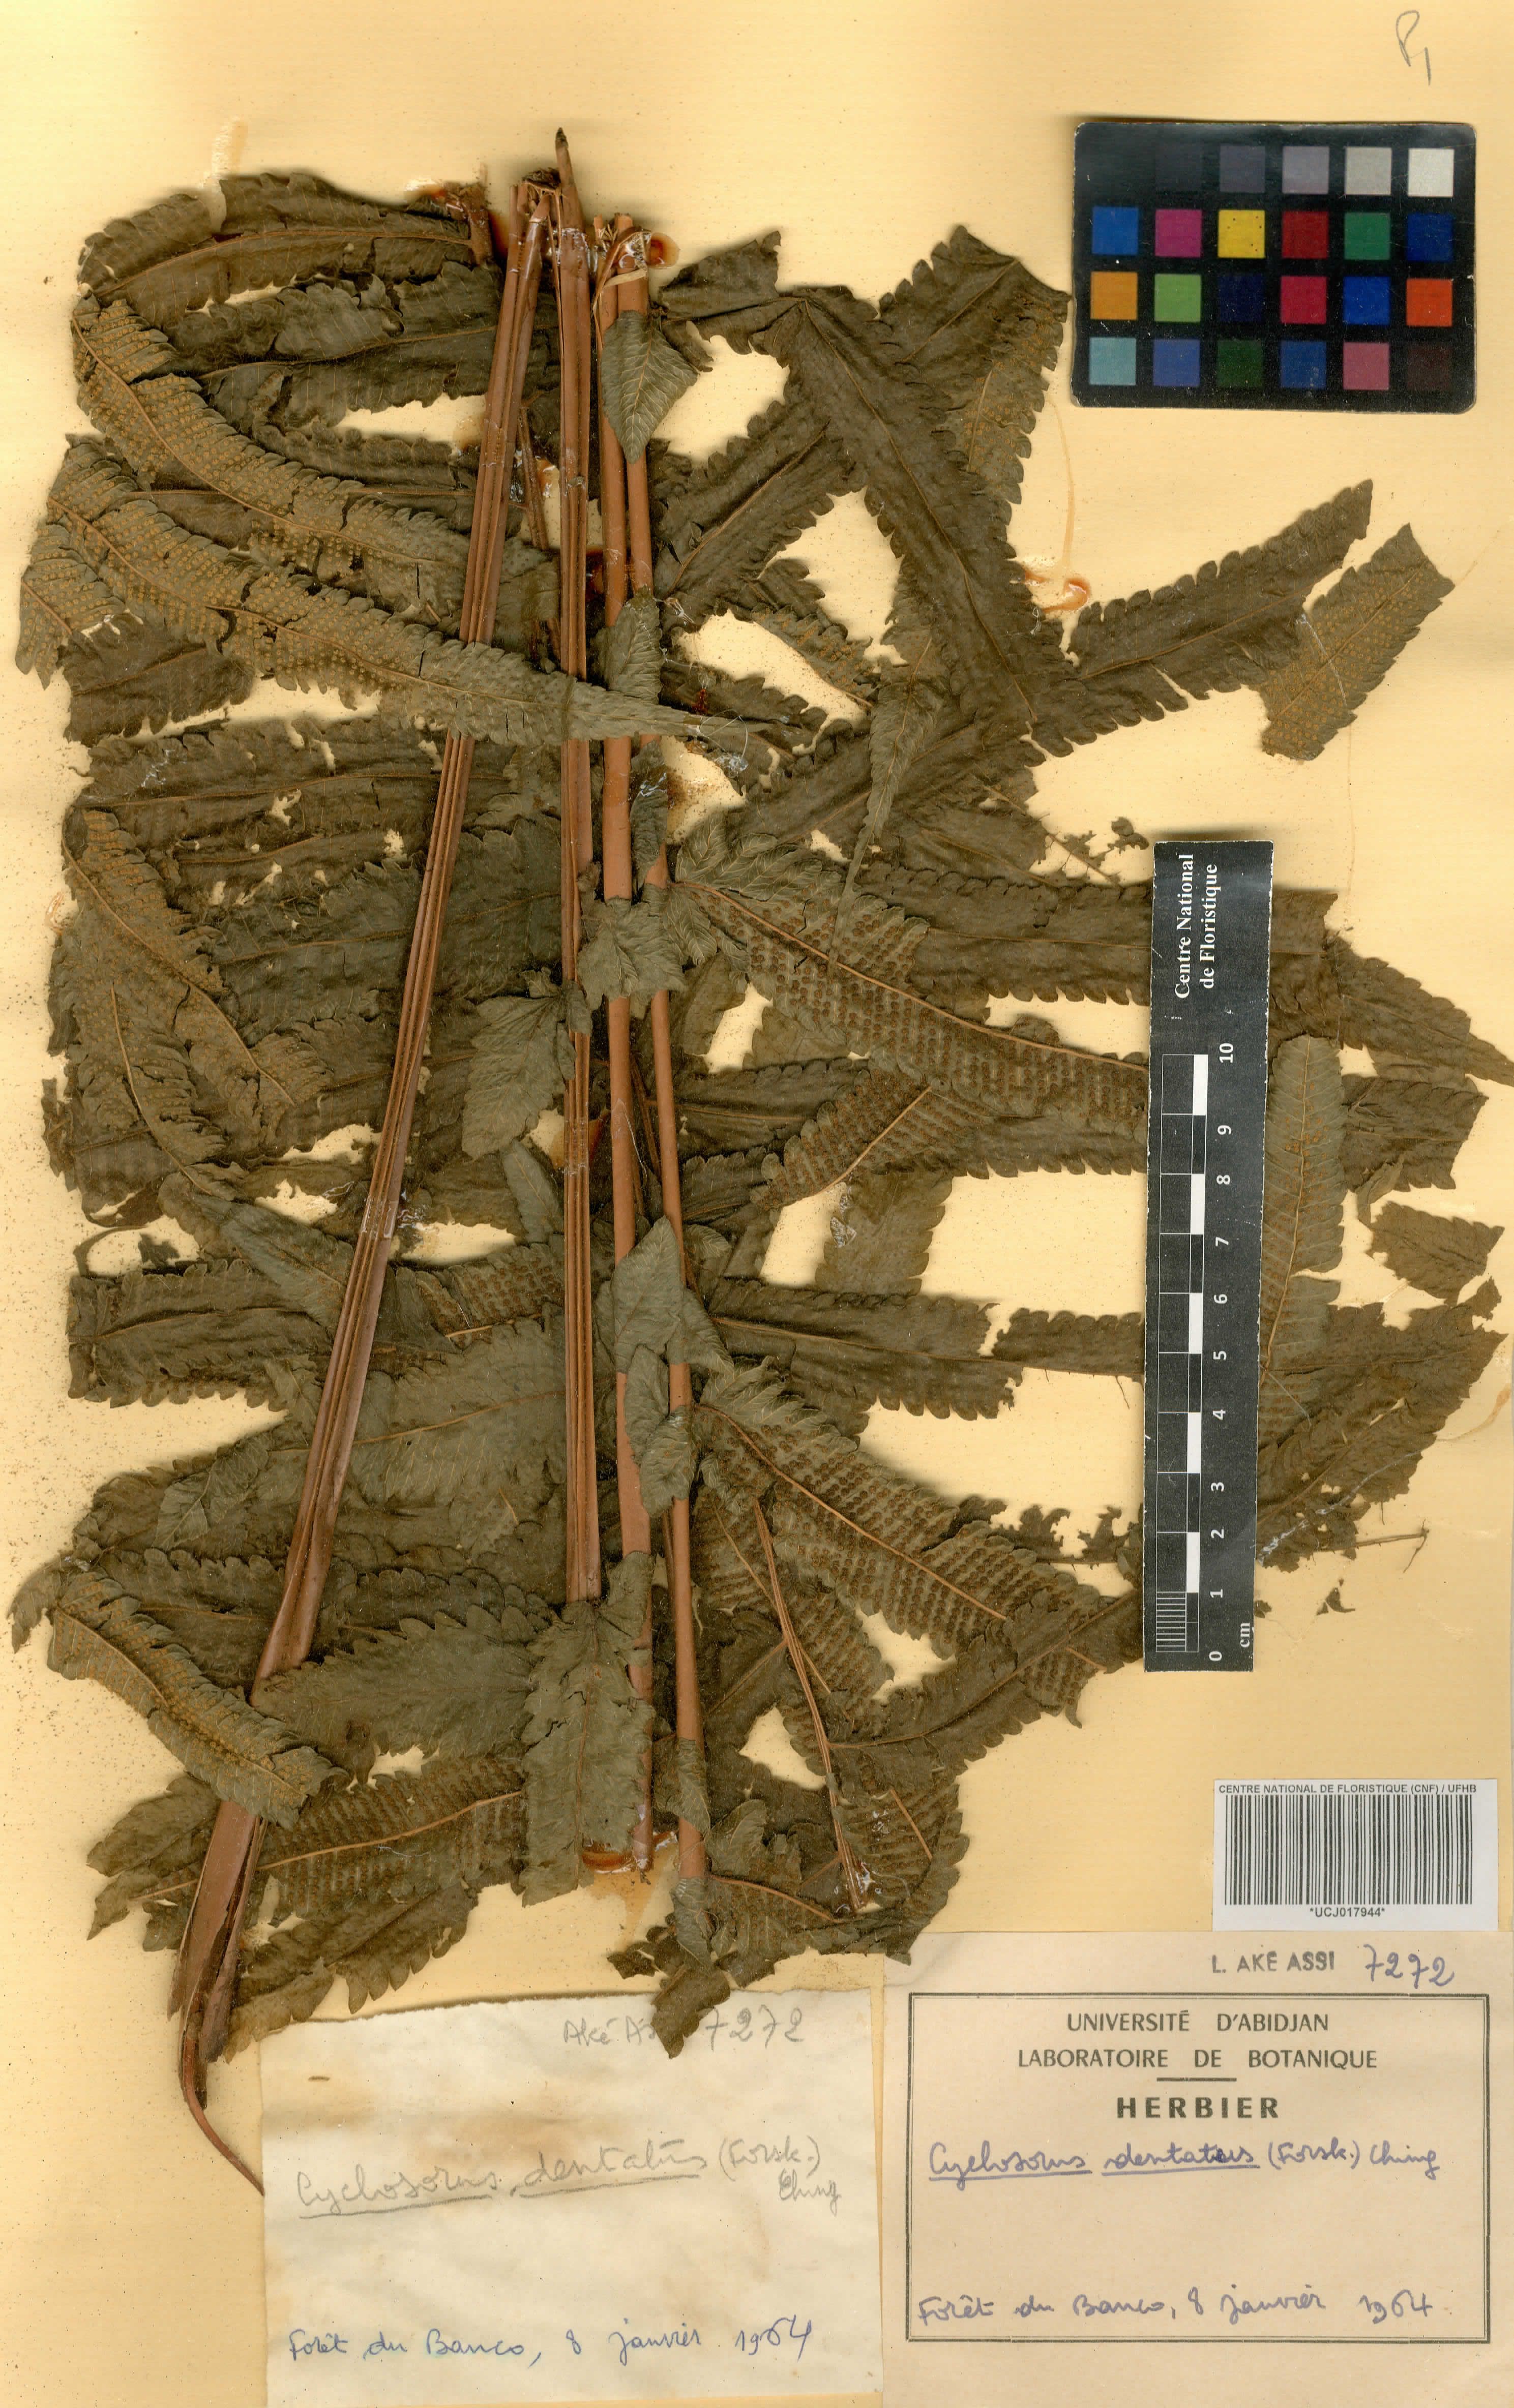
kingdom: Plantae
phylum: Tracheophyta
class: Polypodiopsida
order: Polypodiales
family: Thelypteridaceae
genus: Christella
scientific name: Christella dentata
